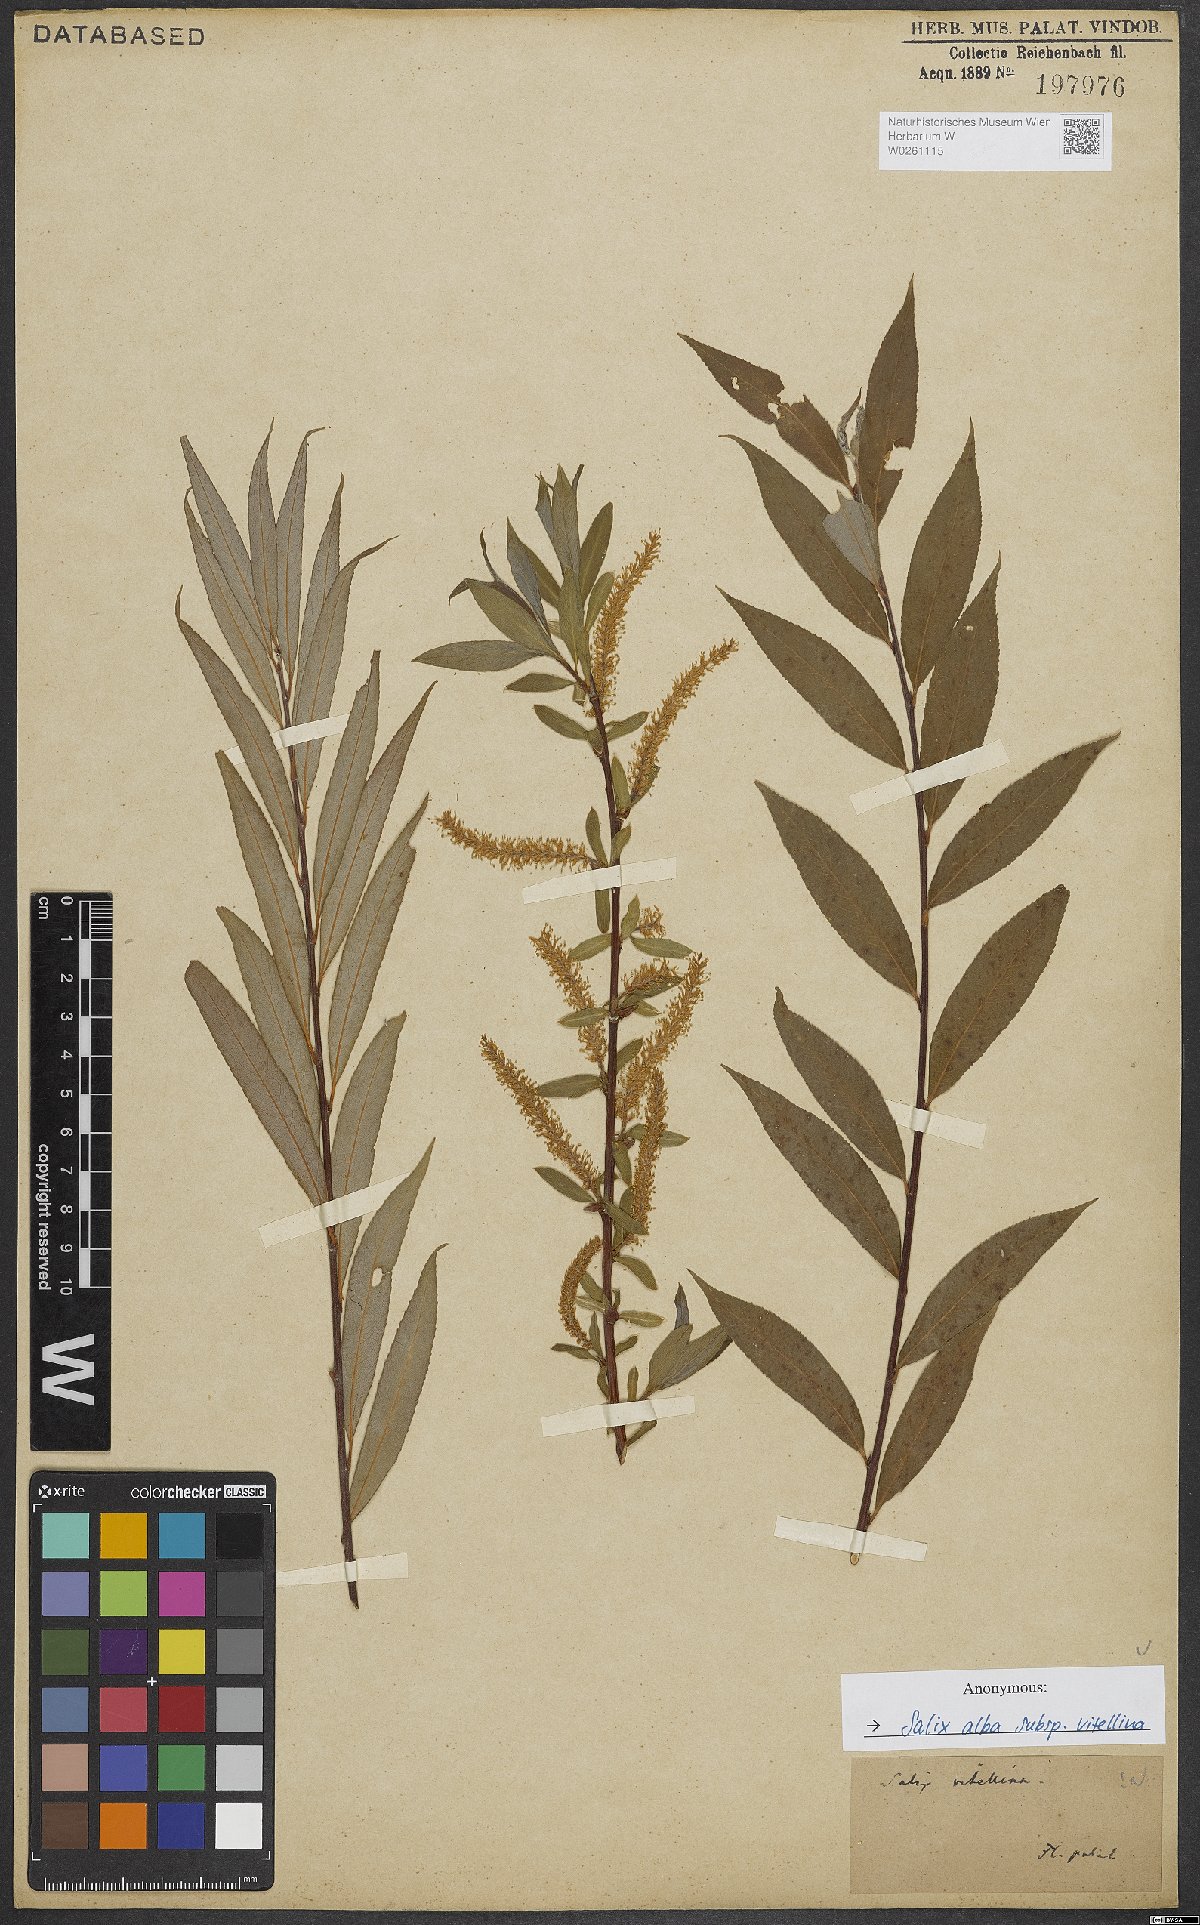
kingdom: Plantae
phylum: Tracheophyta
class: Magnoliopsida
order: Malpighiales
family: Salicaceae
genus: Salix
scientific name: Salix alba
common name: White willow
